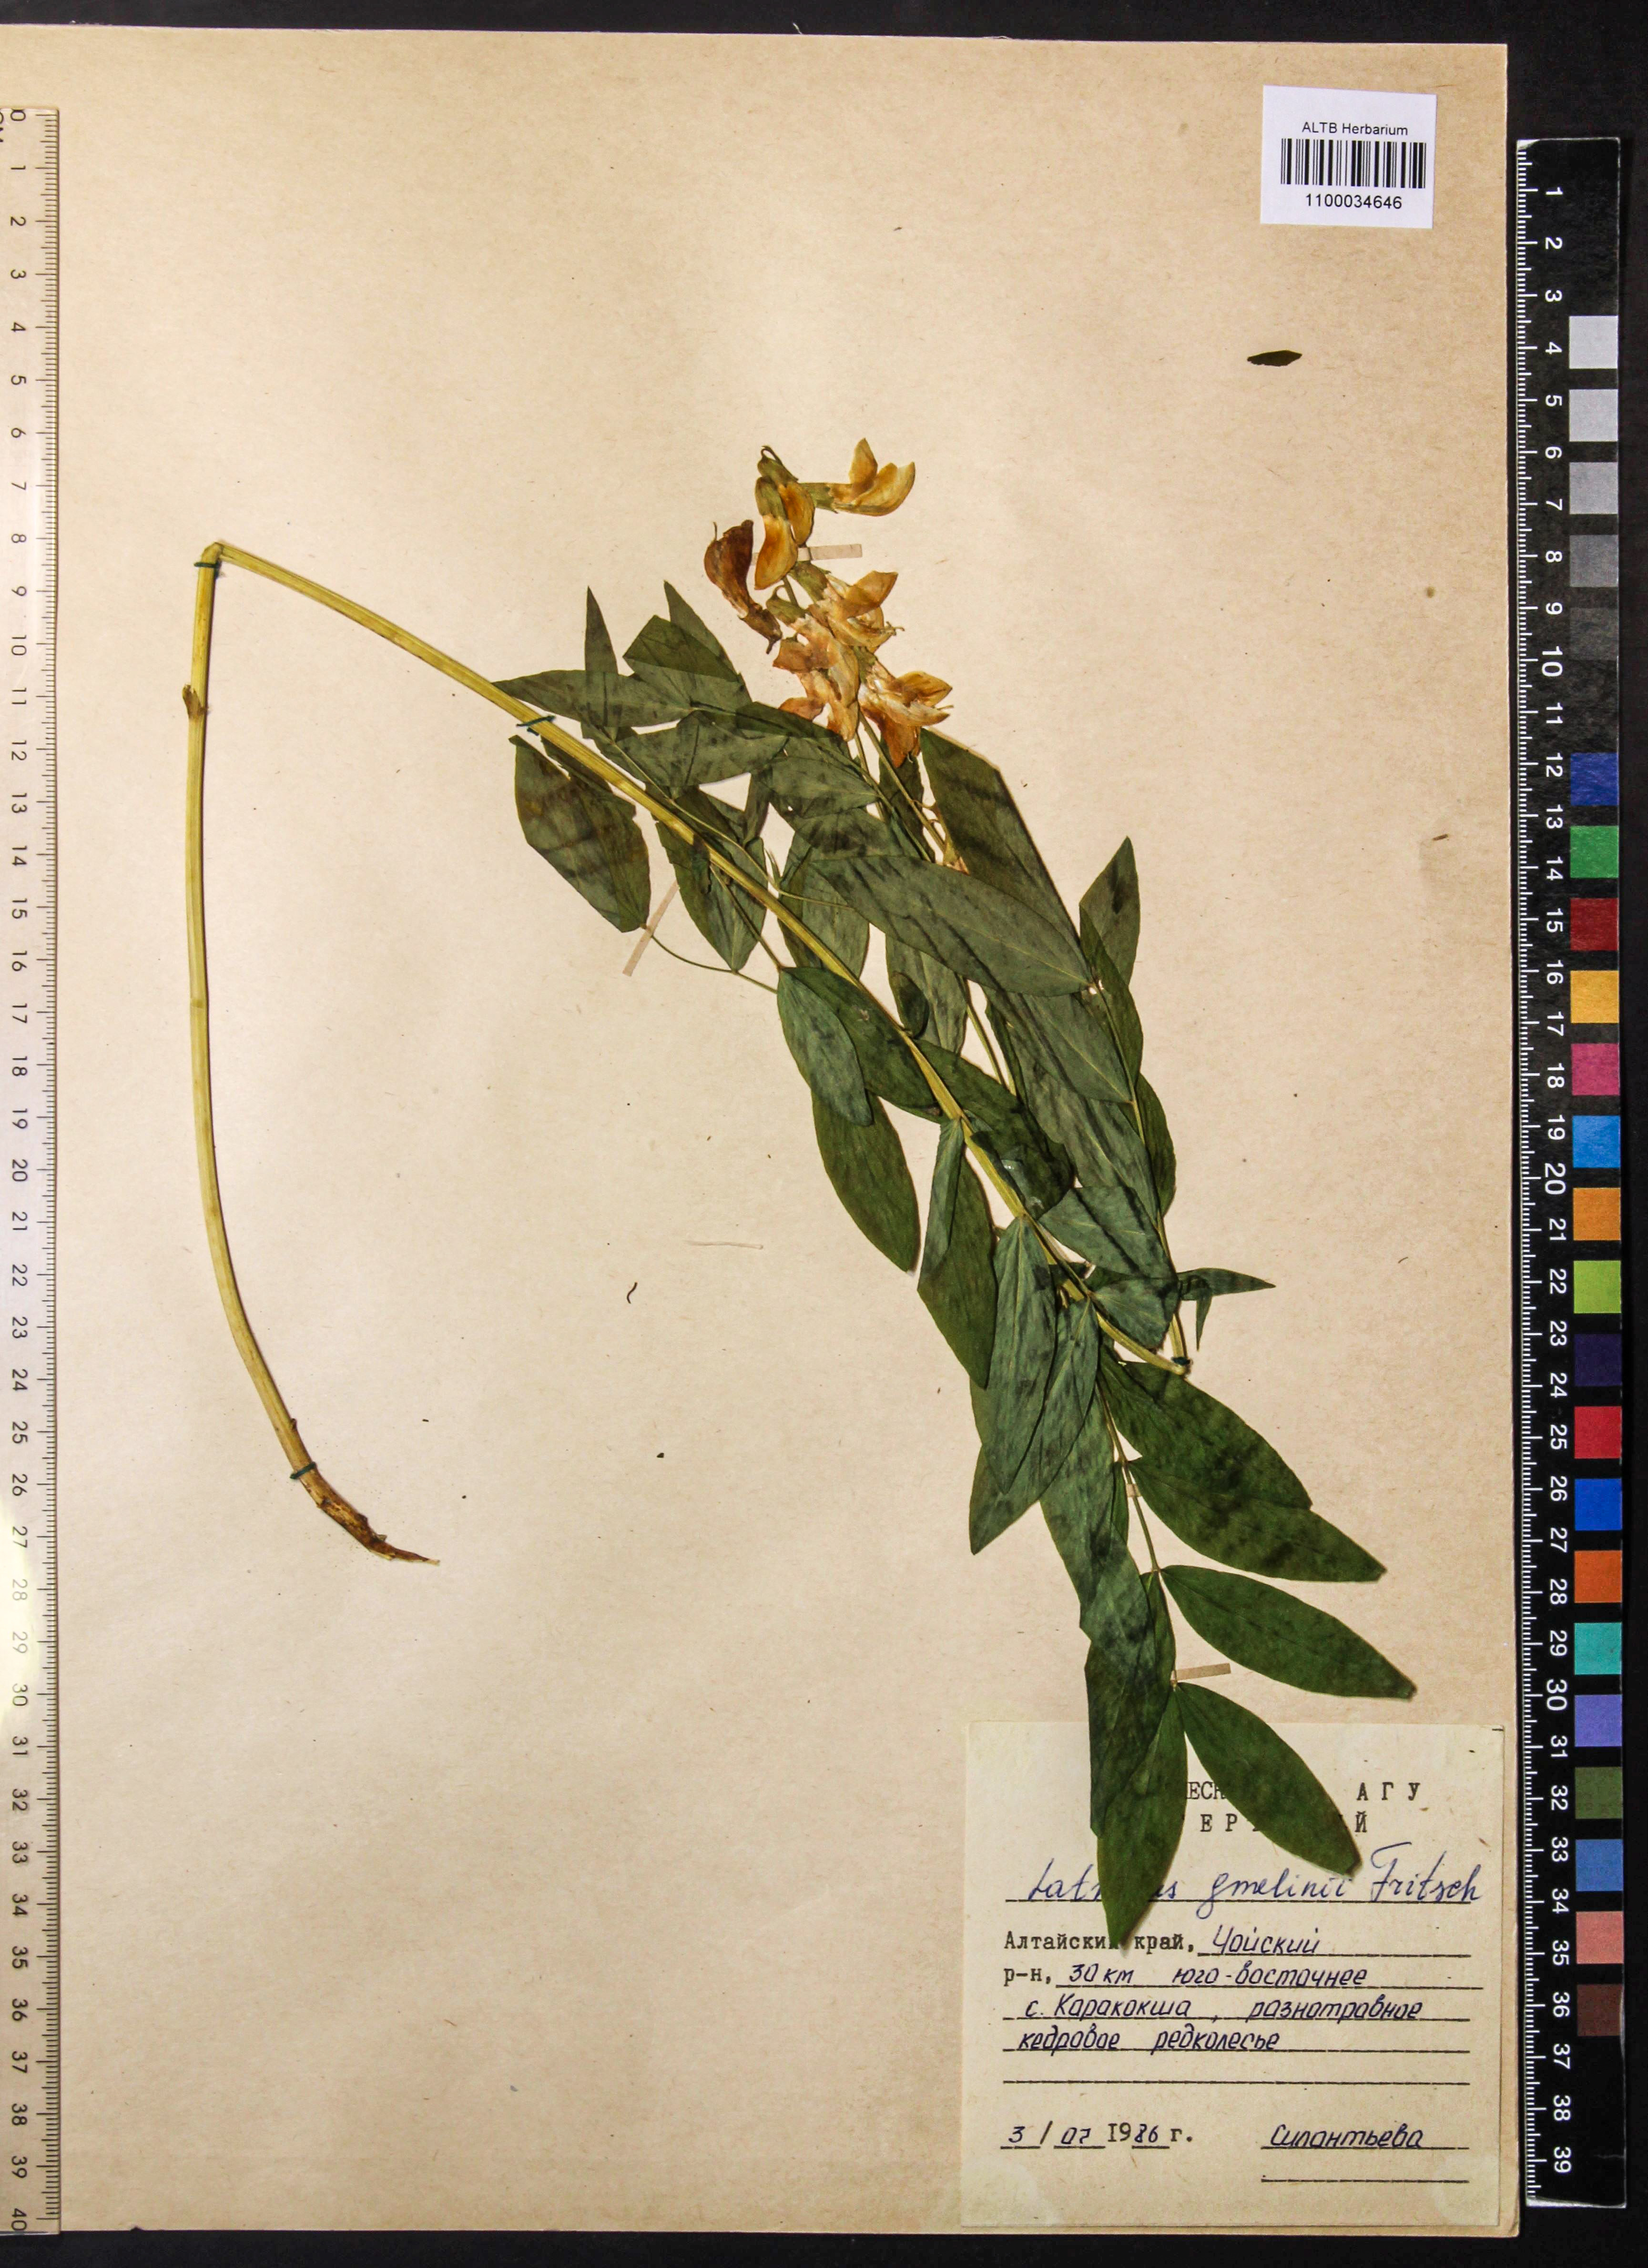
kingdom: Plantae
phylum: Tracheophyta
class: Magnoliopsida
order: Fabales
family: Fabaceae
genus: Lathyrus
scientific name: Lathyrus gmelinii
